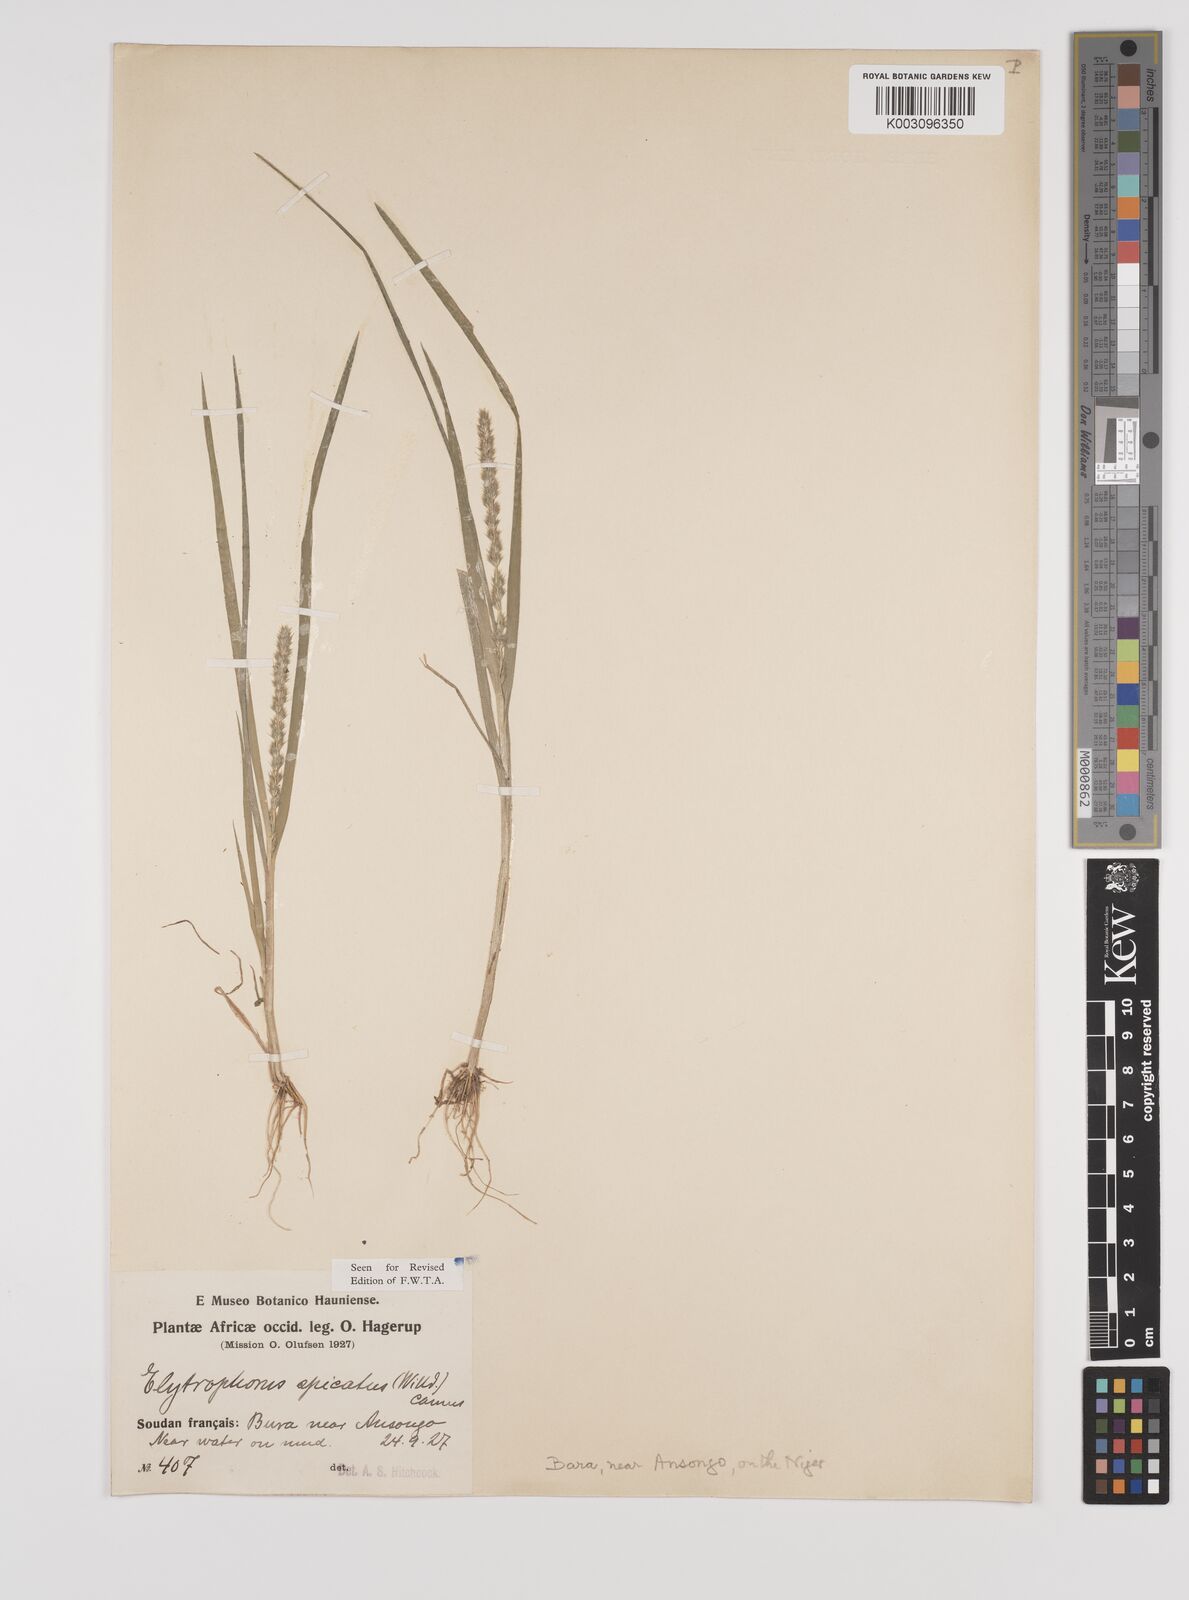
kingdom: Plantae
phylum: Tracheophyta
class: Liliopsida
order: Poales
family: Poaceae
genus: Elytrophorus
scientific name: Elytrophorus spicatus
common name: Spike grass
